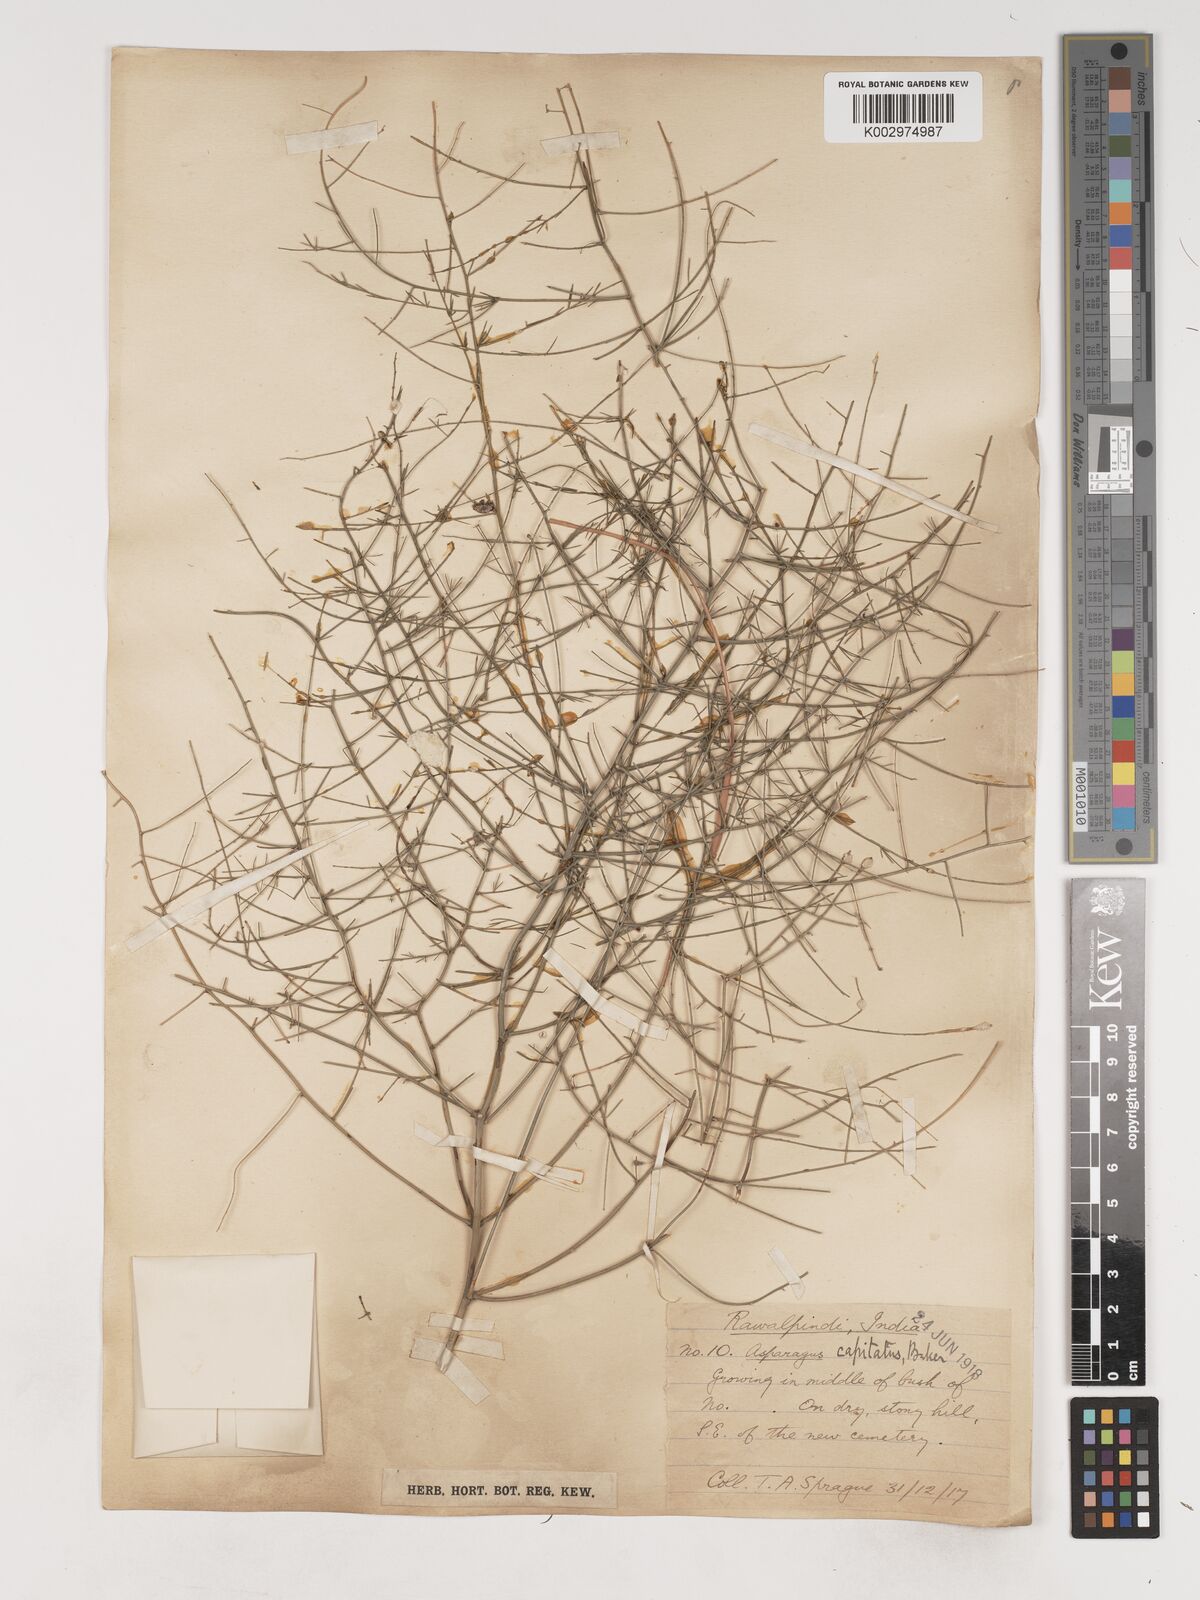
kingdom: Plantae
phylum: Tracheophyta
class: Liliopsida
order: Asparagales
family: Asparagaceae
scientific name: Asparagaceae
